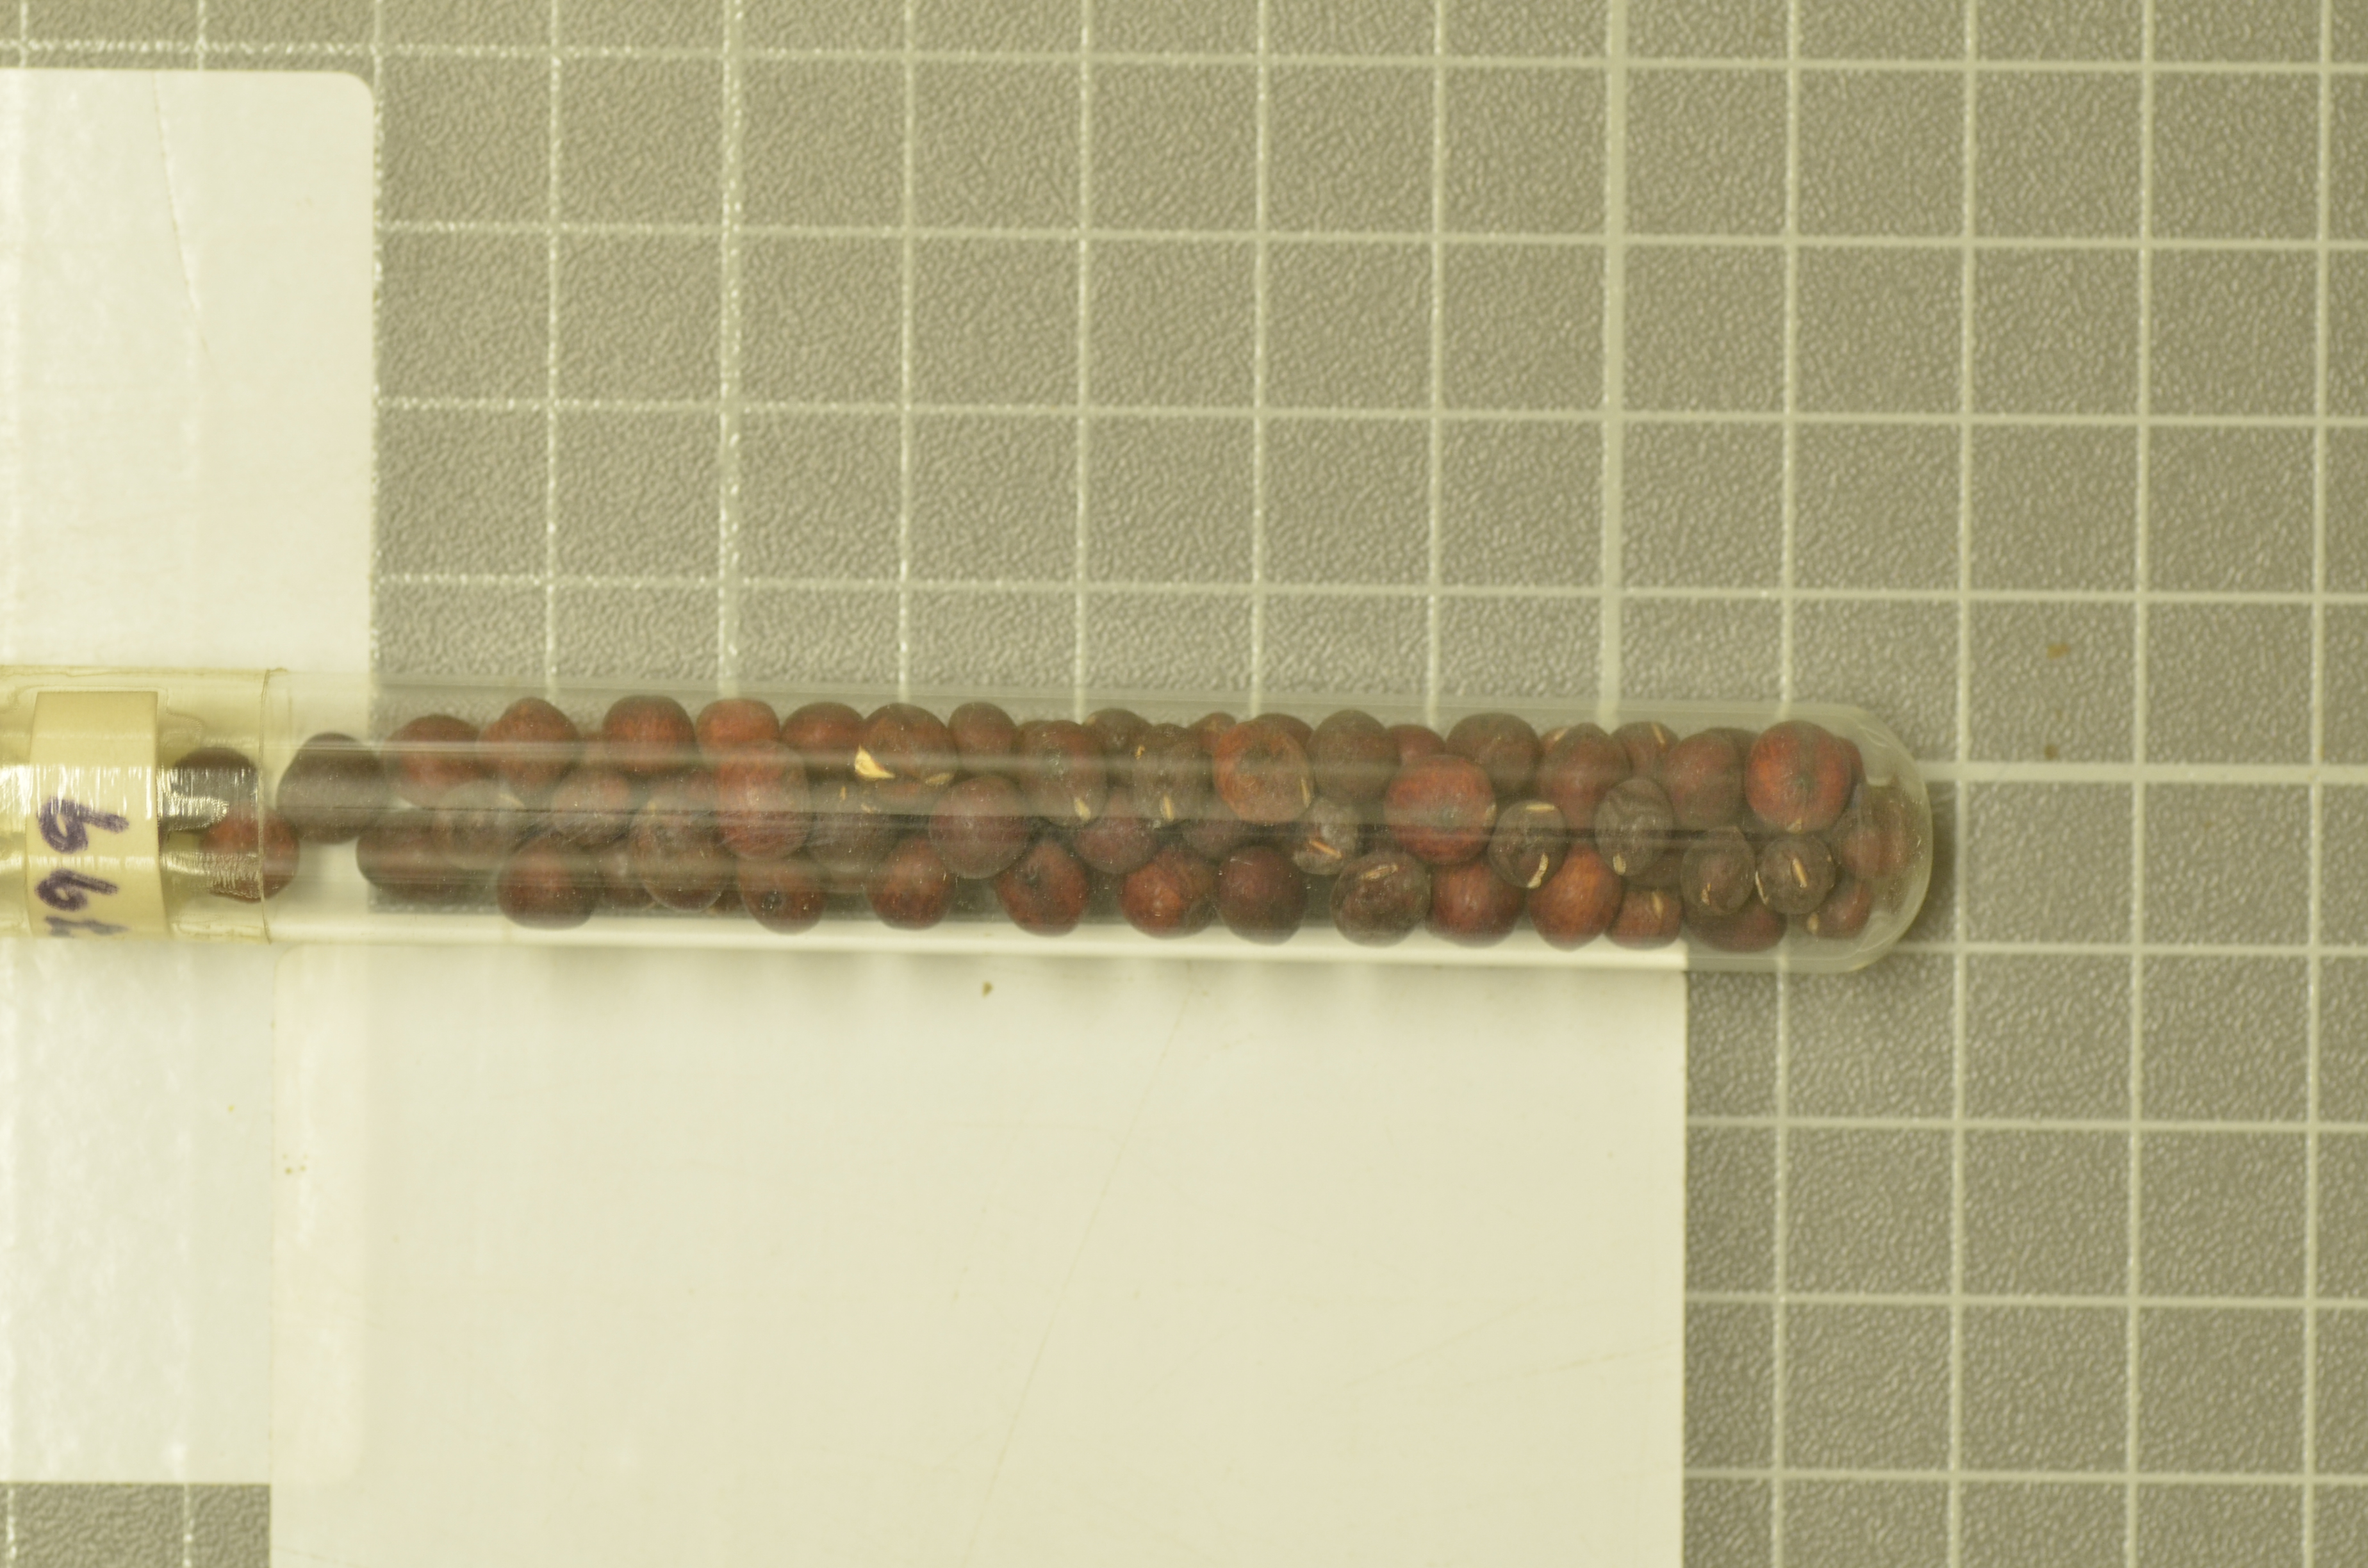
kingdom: Plantae
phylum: Tracheophyta
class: Magnoliopsida
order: Fabales
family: Fabaceae
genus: Lathyrus
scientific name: Lathyrus oleraceus
